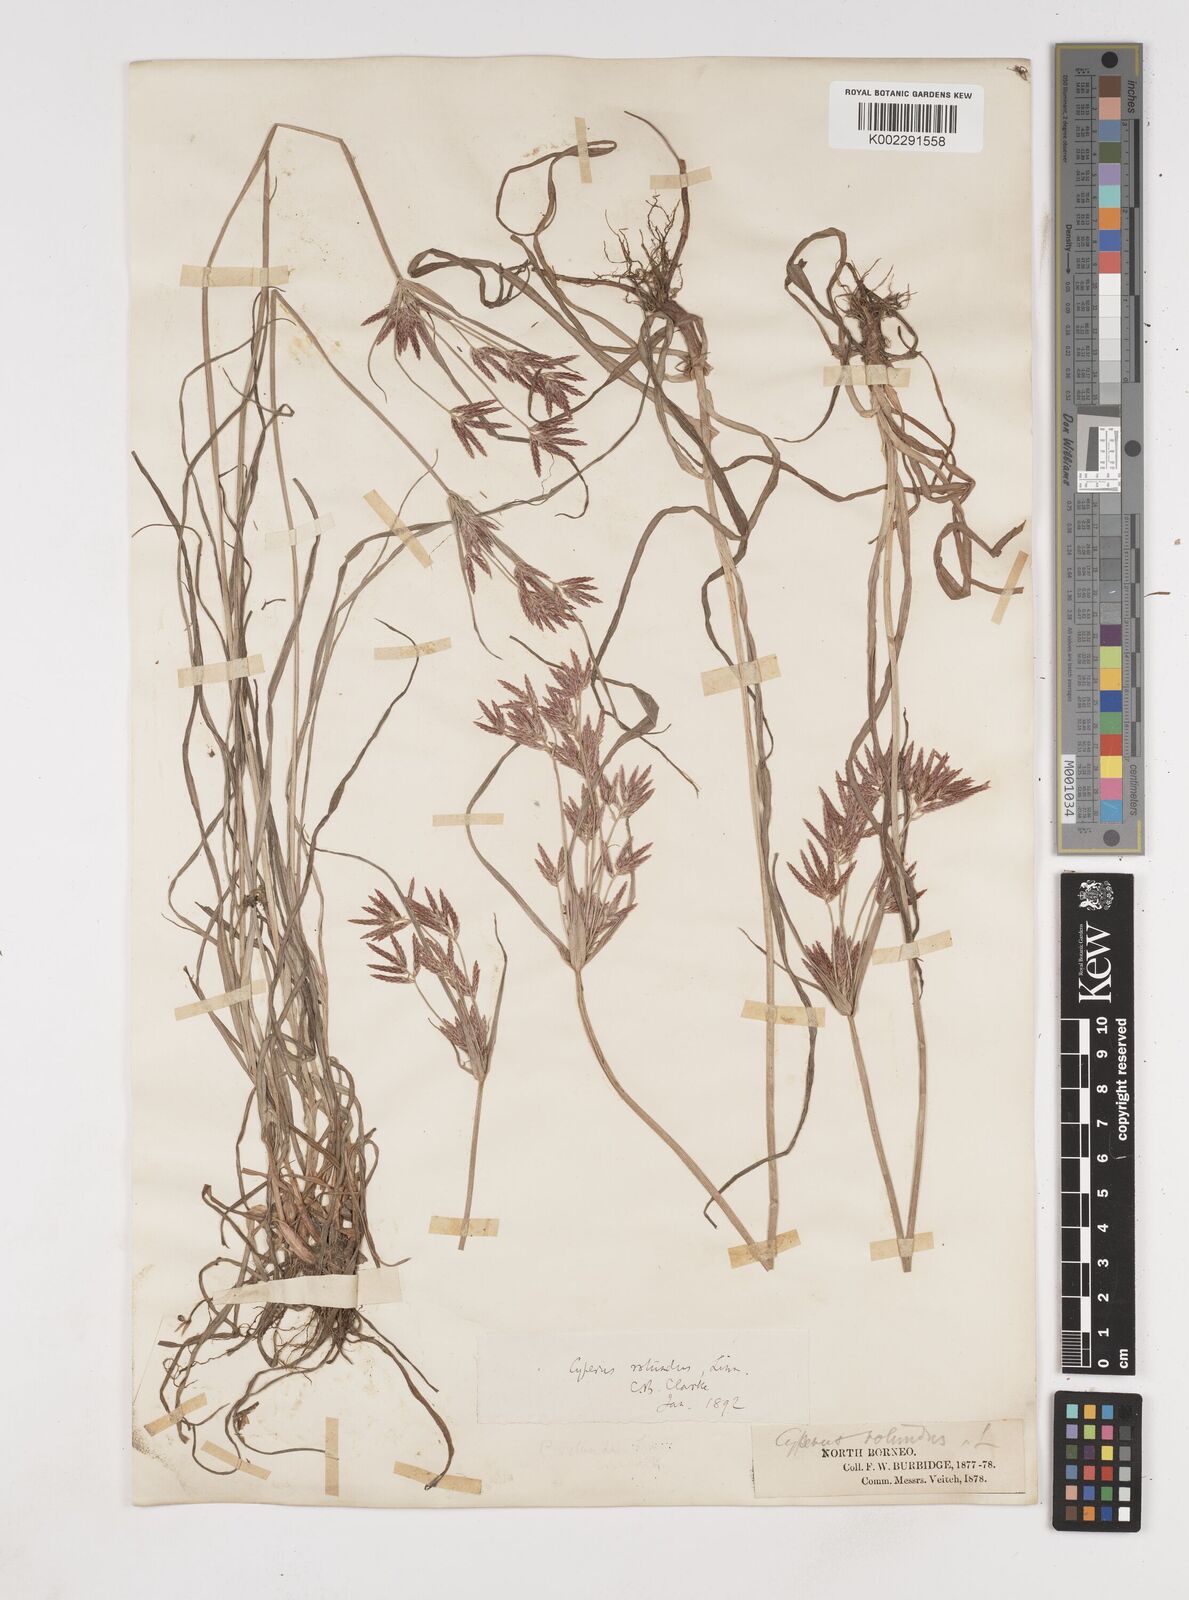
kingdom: Plantae
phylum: Tracheophyta
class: Liliopsida
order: Poales
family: Cyperaceae
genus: Cyperus
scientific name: Cyperus rotundus
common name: Nutgrass
